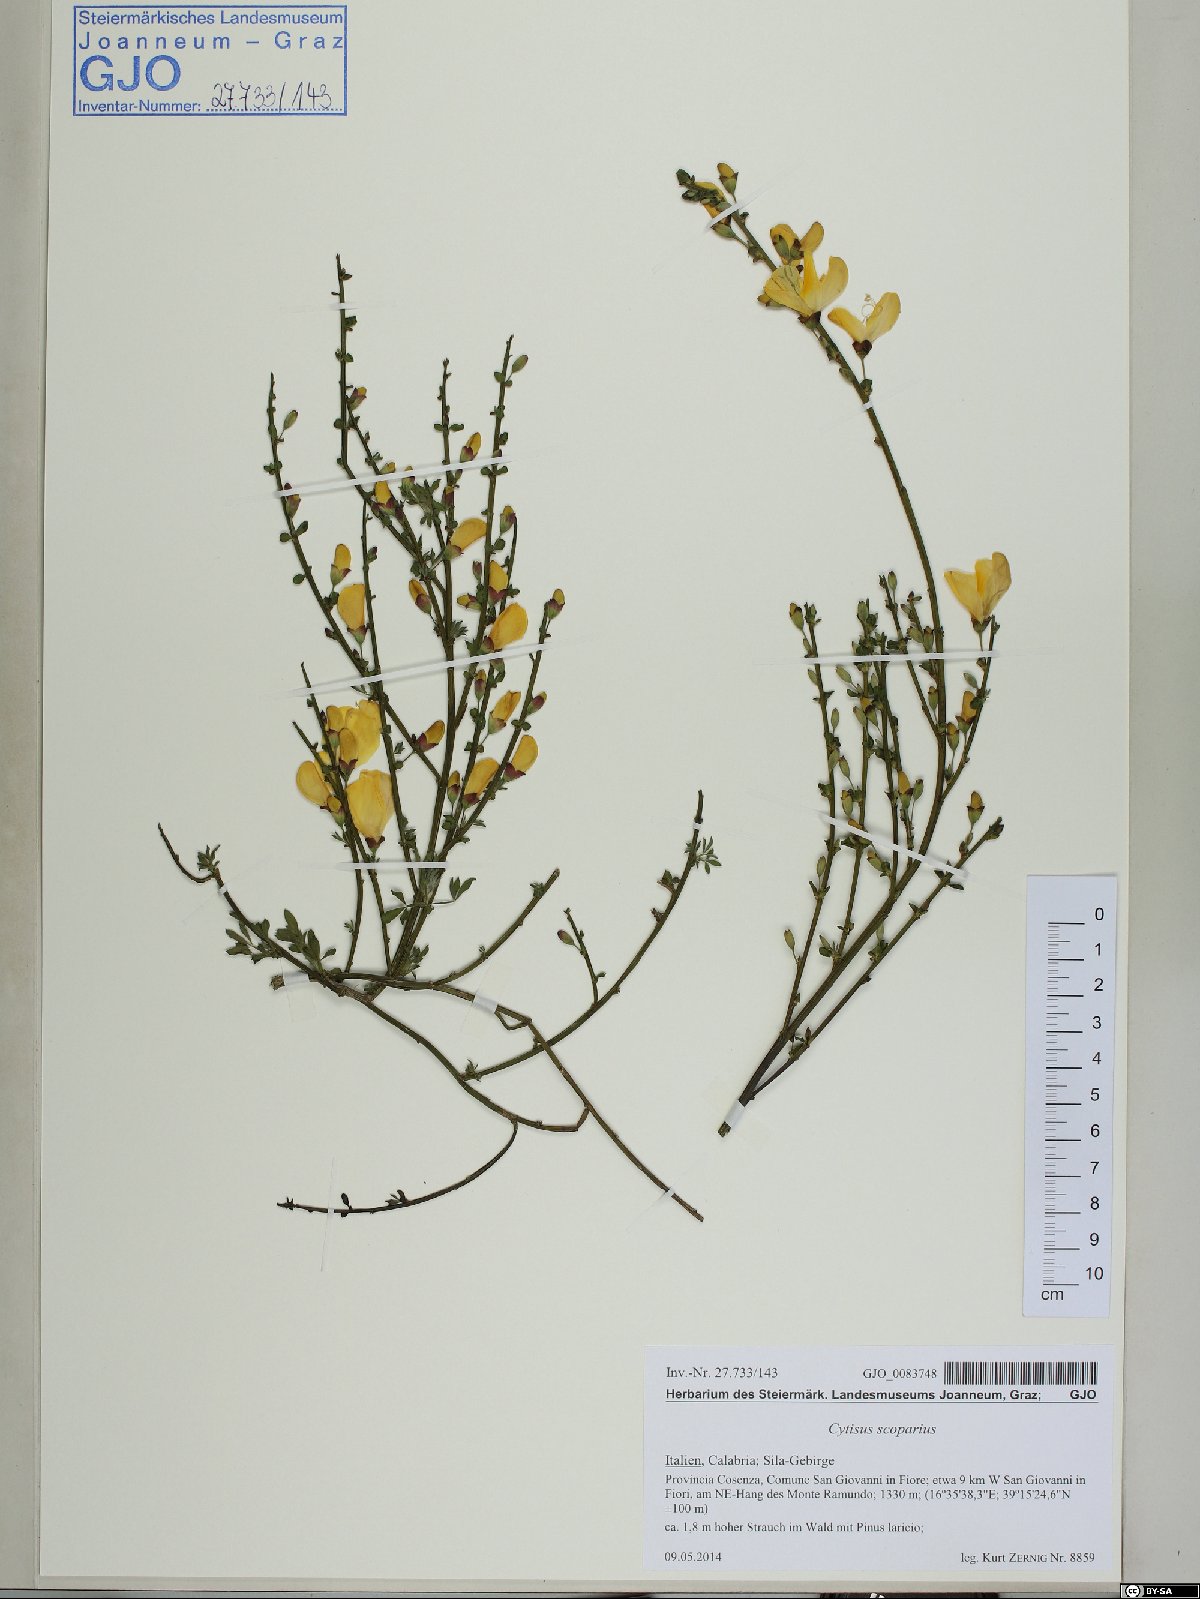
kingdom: Plantae
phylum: Tracheophyta
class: Magnoliopsida
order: Fabales
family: Fabaceae
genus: Cytisus
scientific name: Cytisus scoparius
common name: Scotch broom
